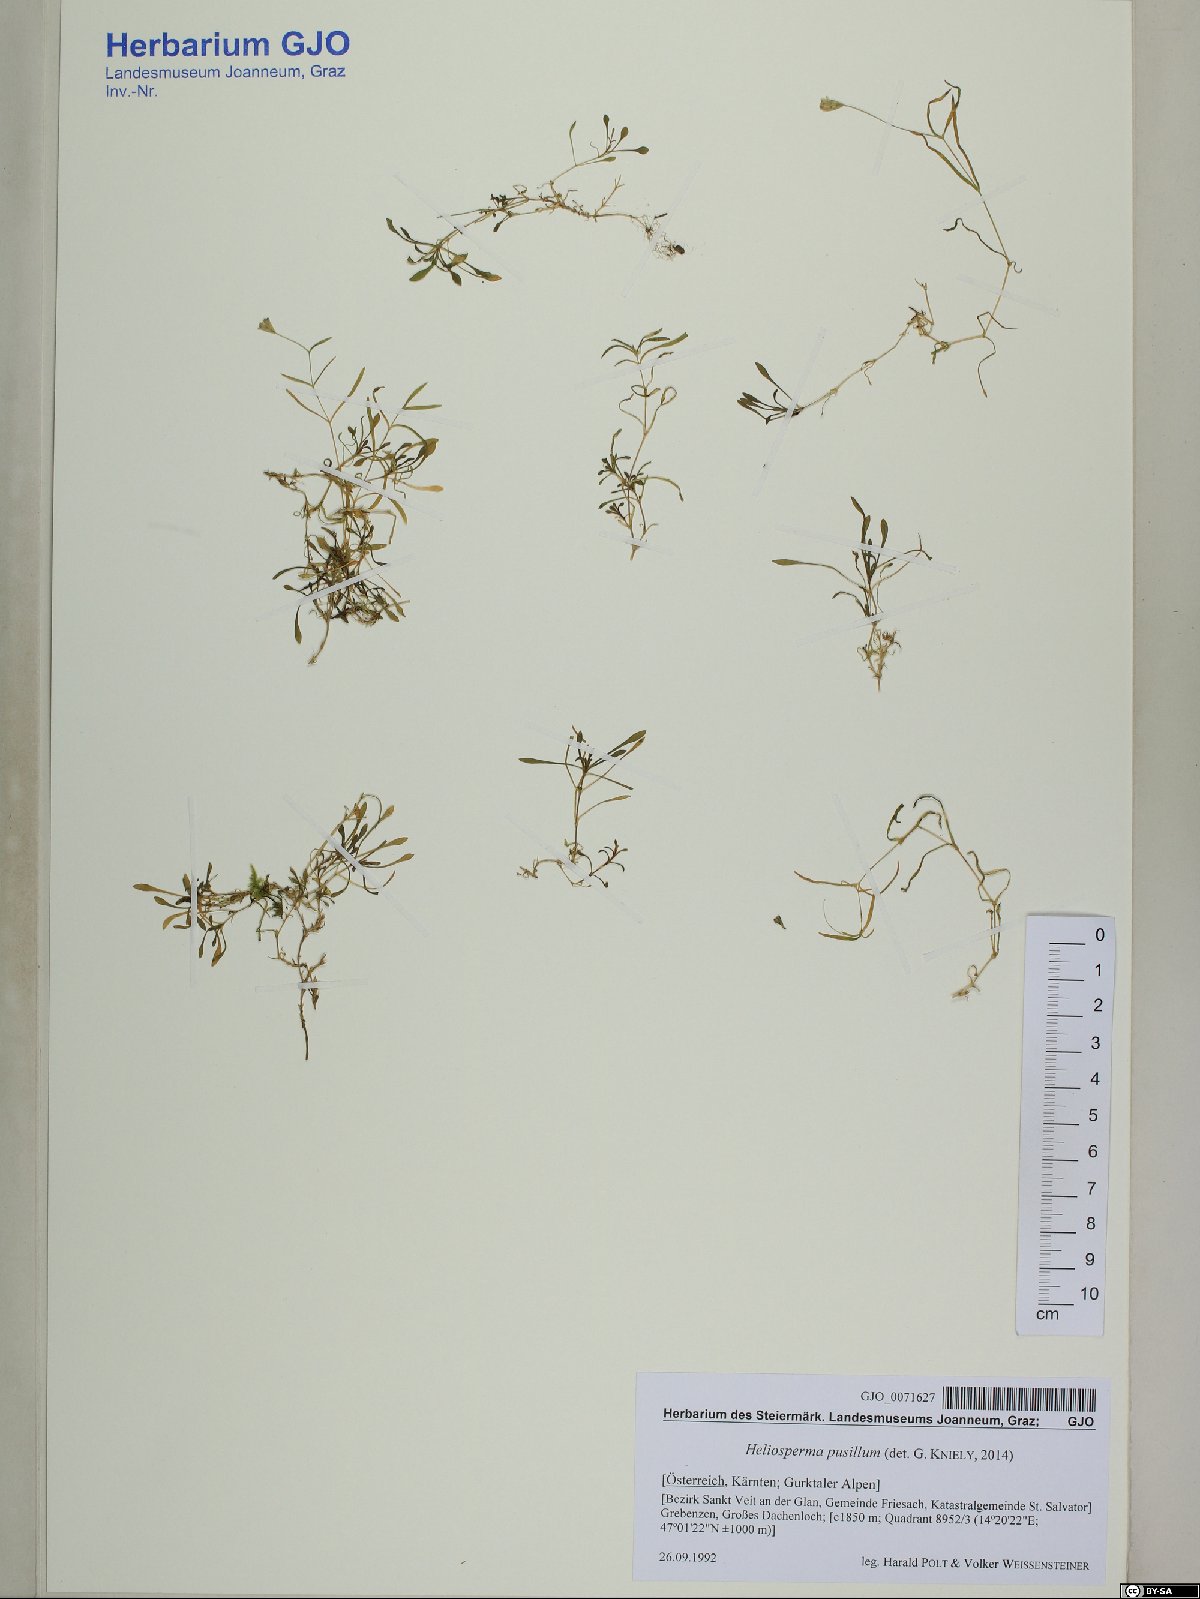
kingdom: Plantae
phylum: Tracheophyta
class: Magnoliopsida
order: Caryophyllales
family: Caryophyllaceae
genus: Heliosperma
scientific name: Heliosperma pusillum
